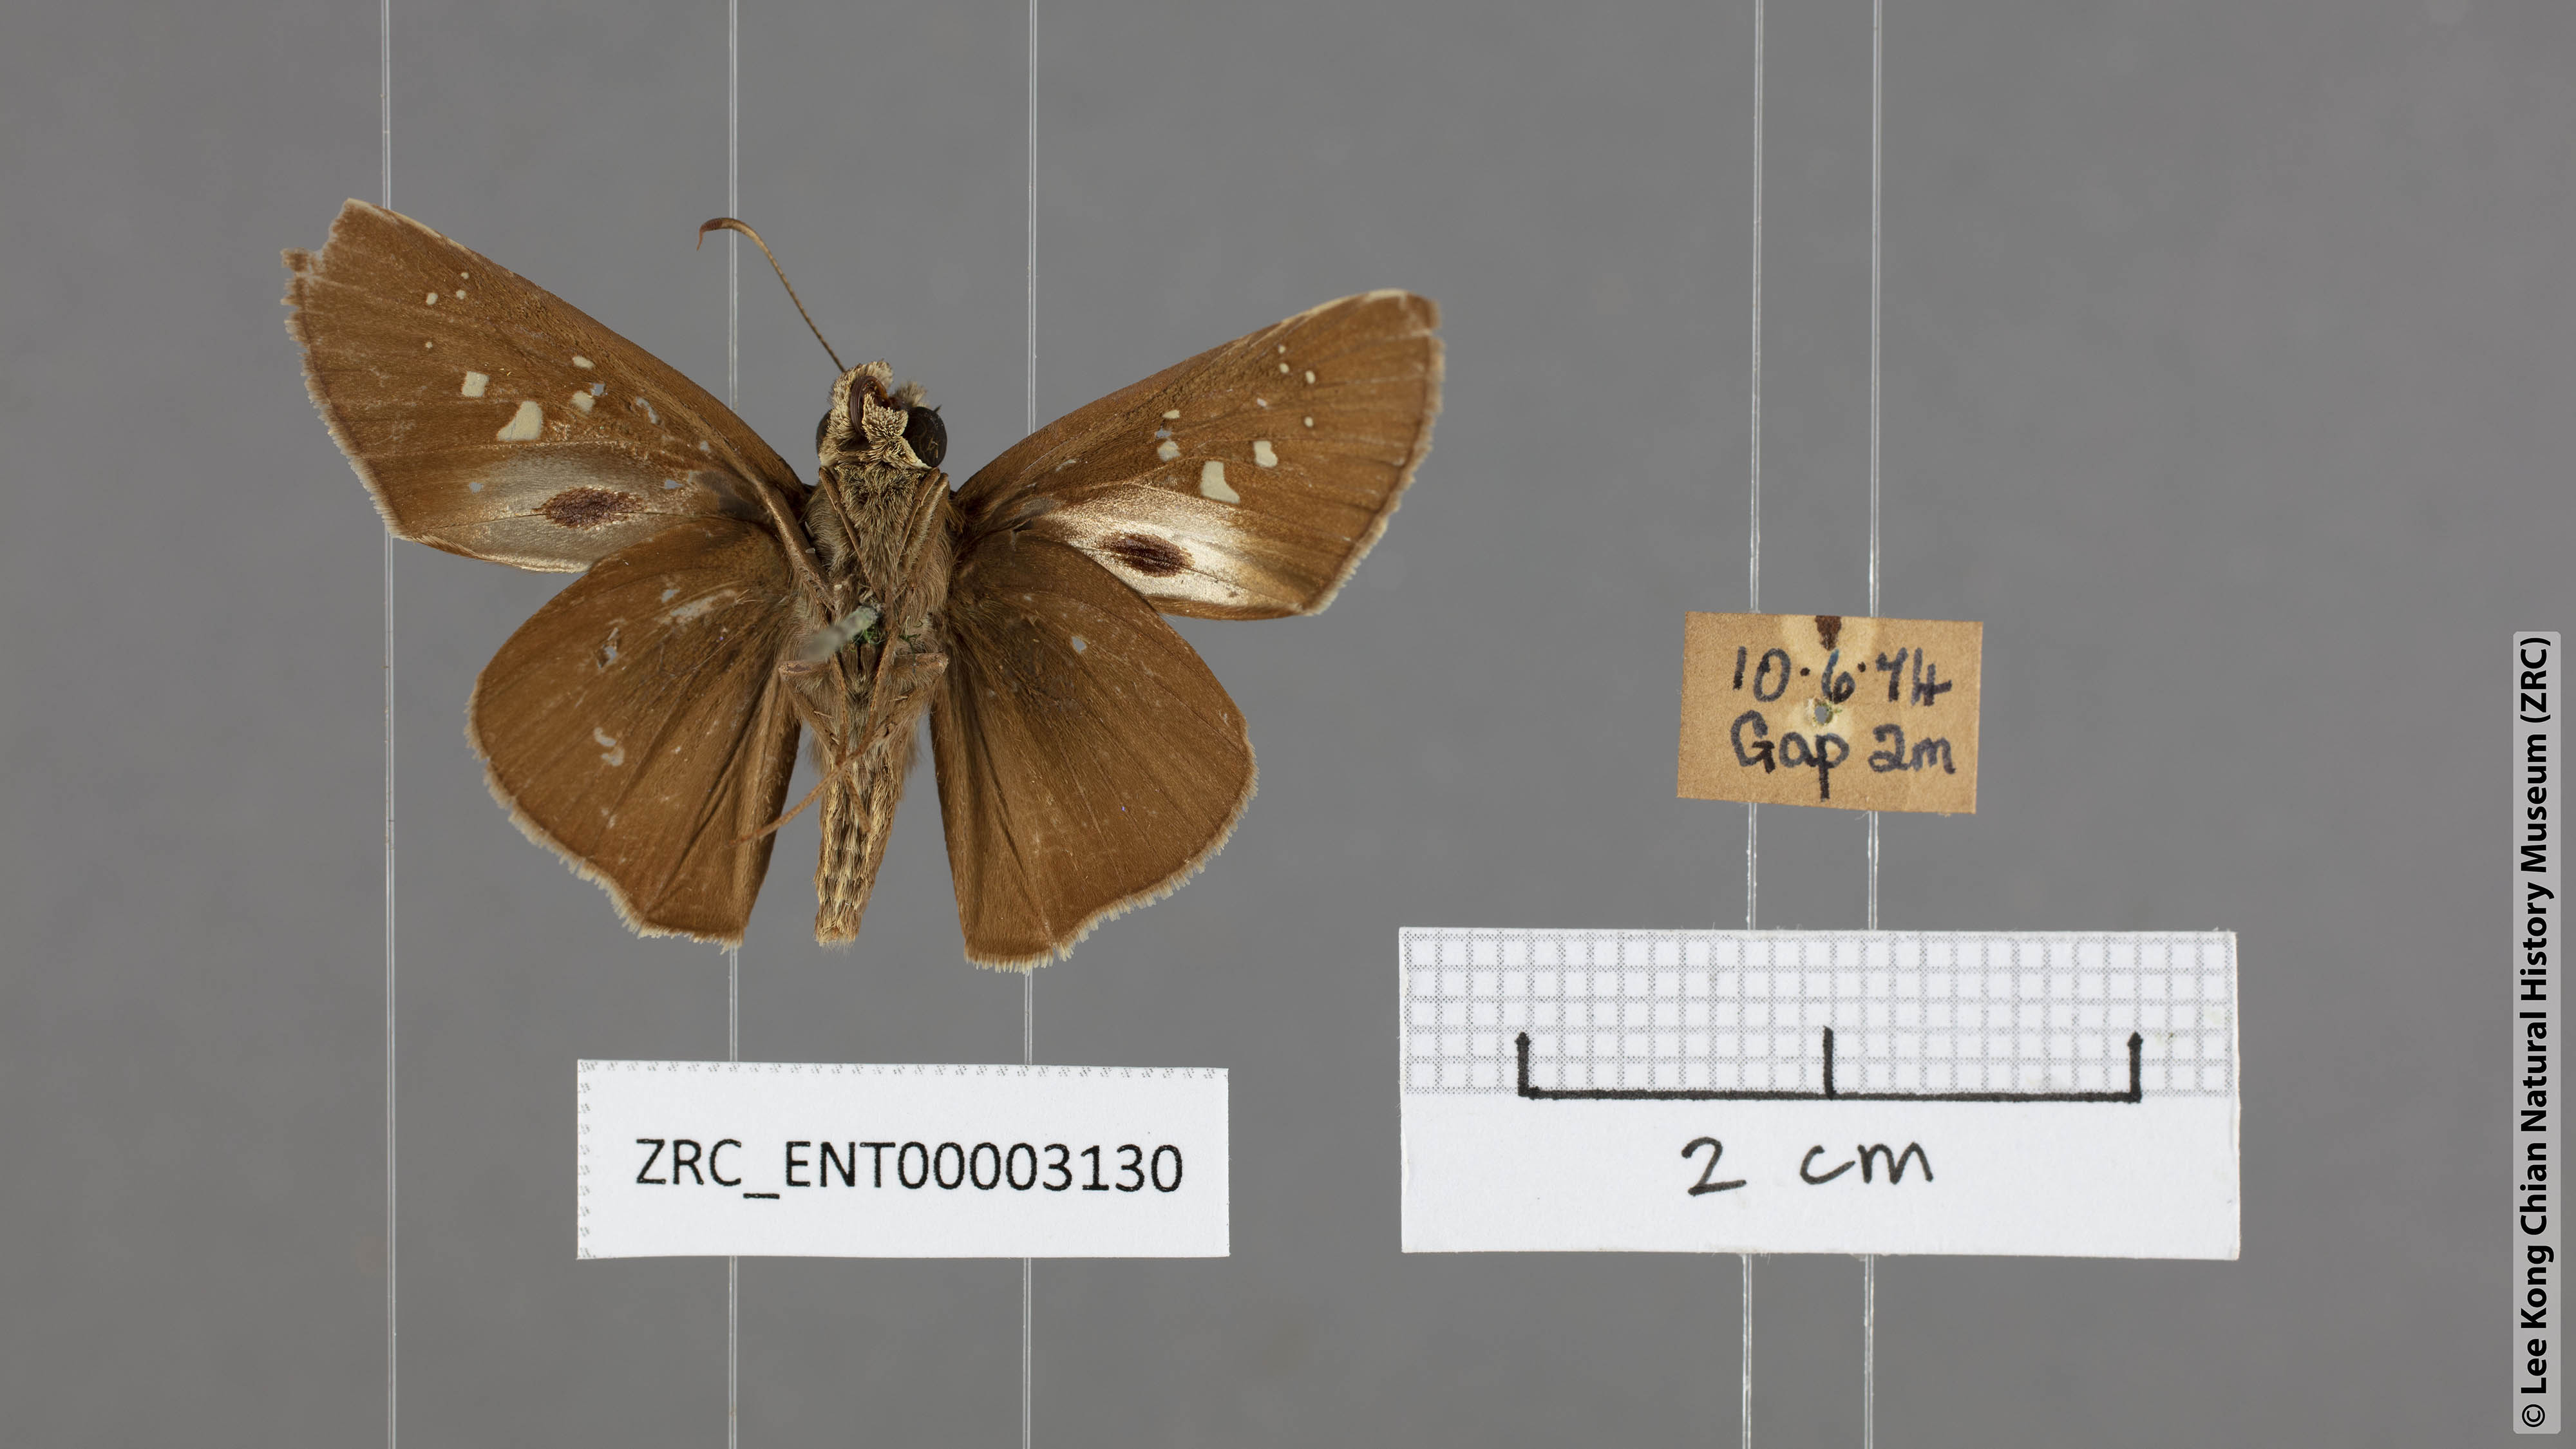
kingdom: Animalia
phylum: Arthropoda
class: Insecta
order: Lepidoptera
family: Hesperiidae
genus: Baoris
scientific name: Baoris farri
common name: Paintbrush swift
